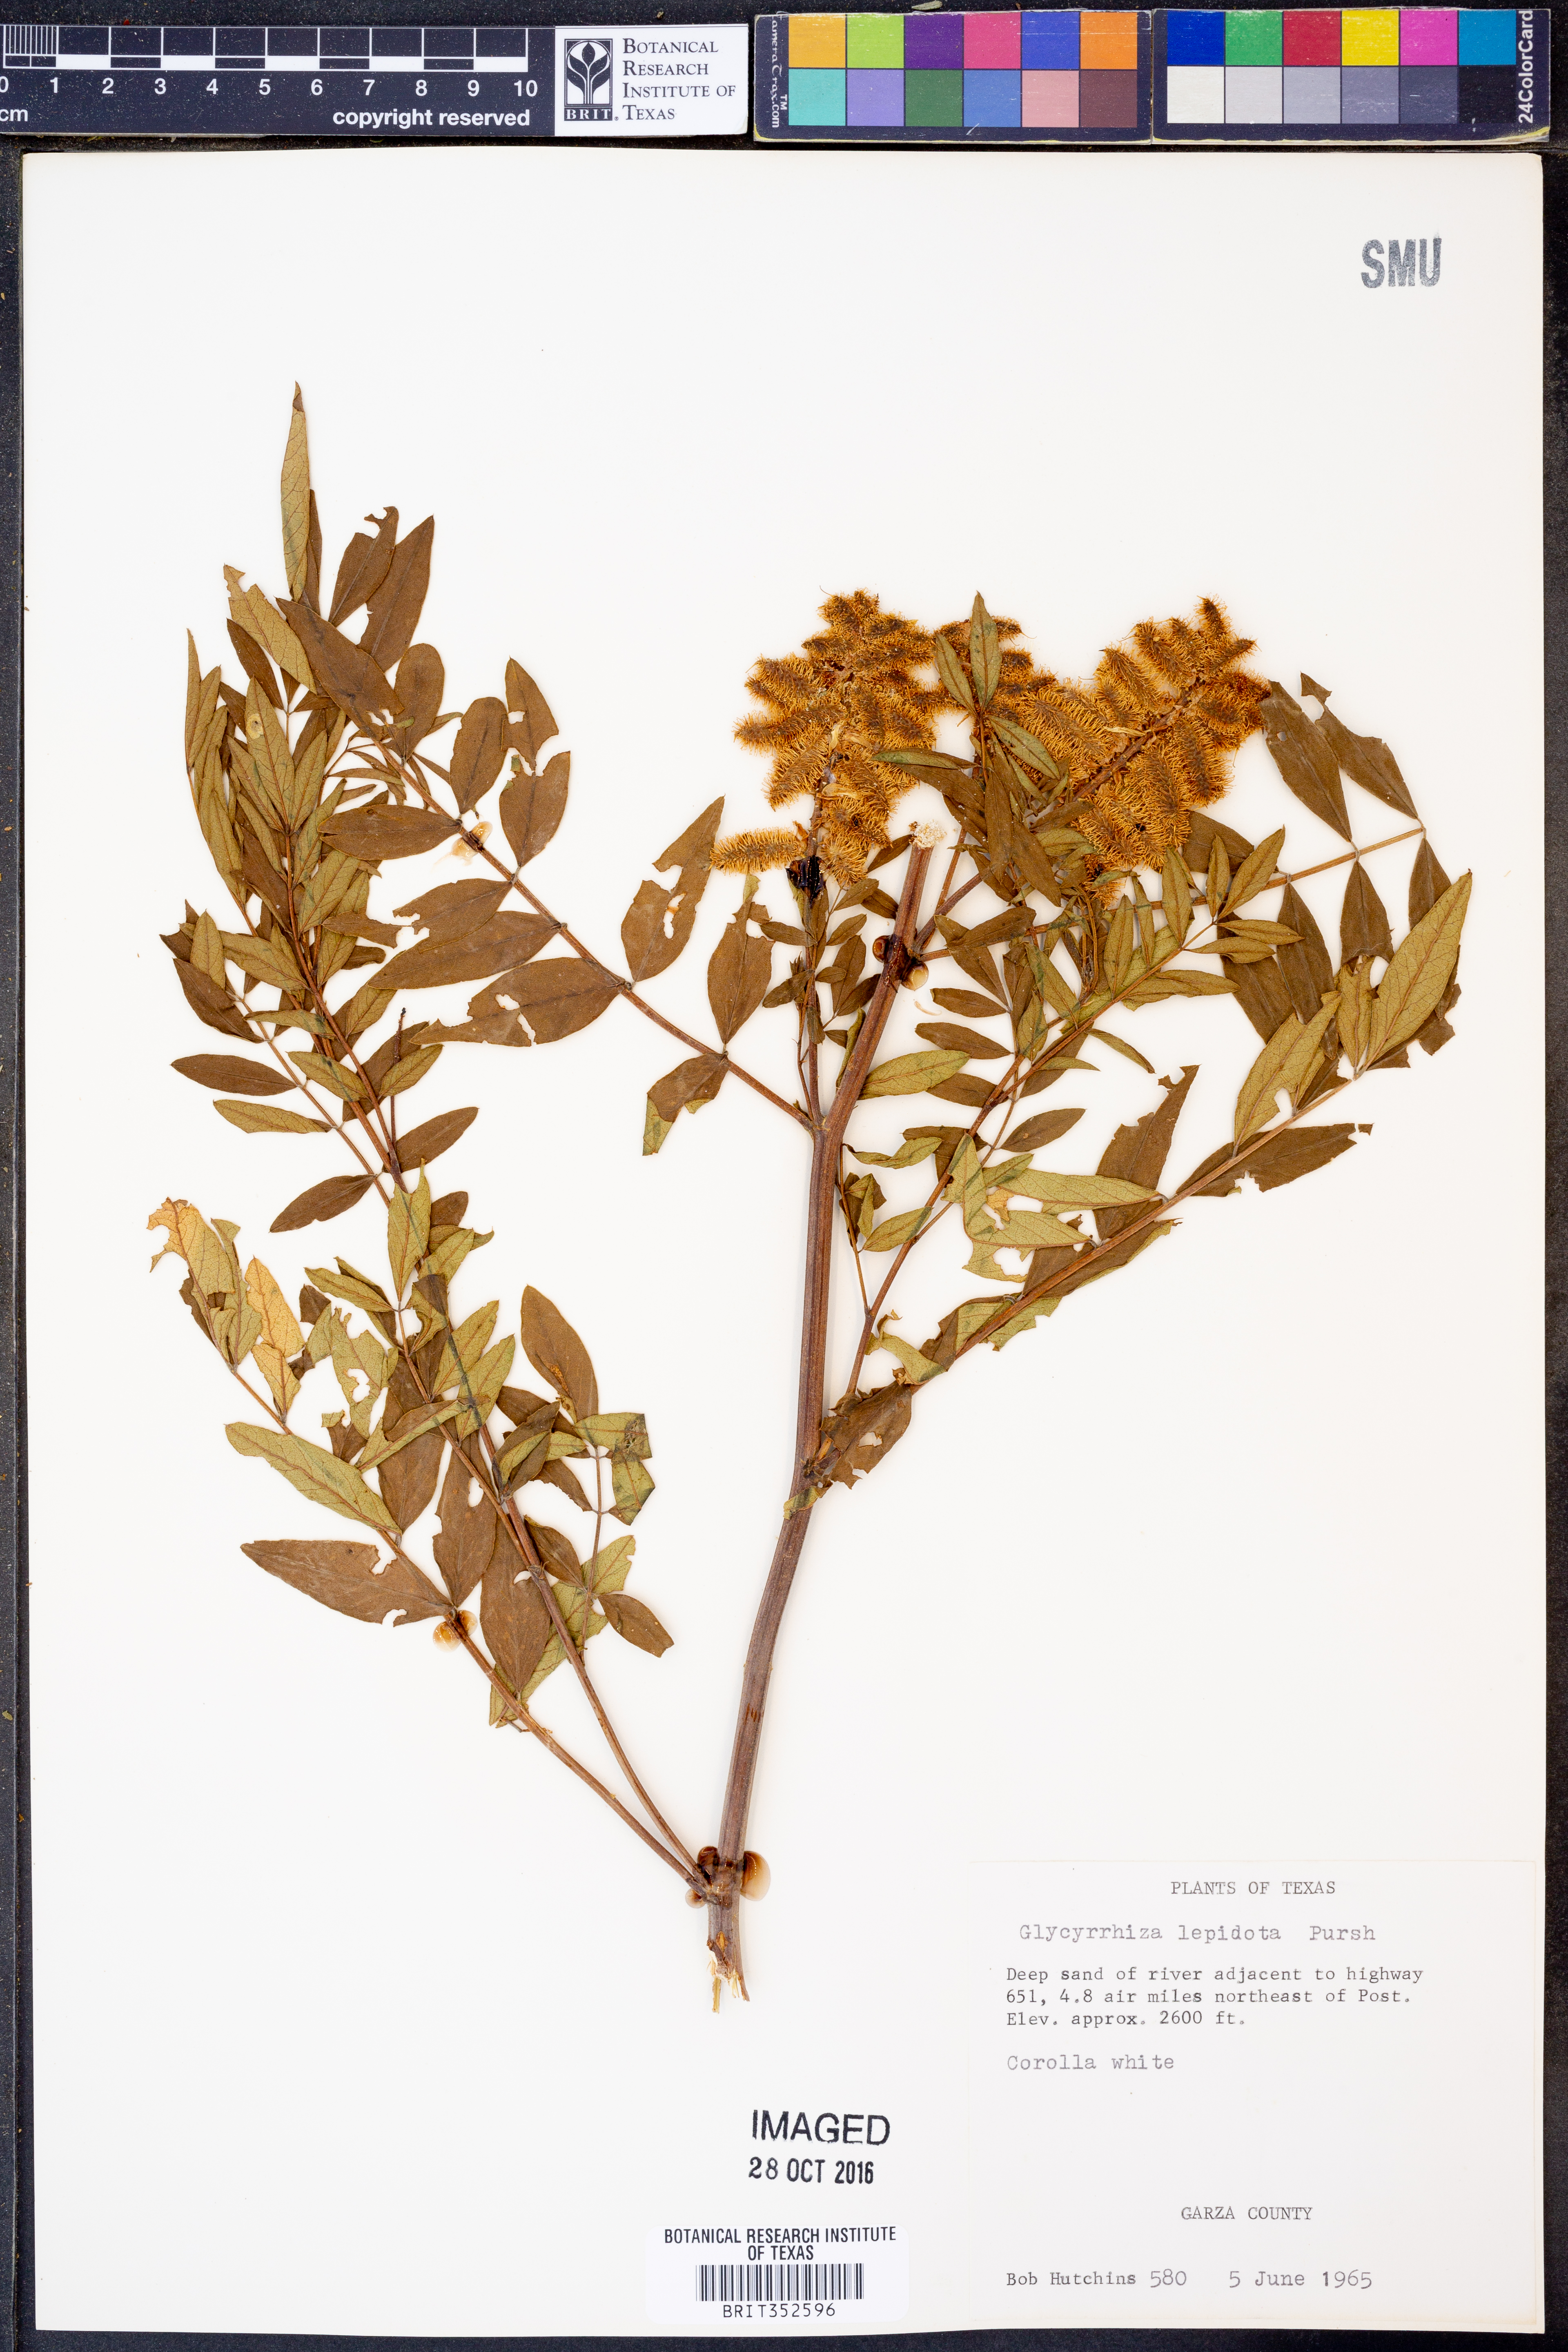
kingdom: Plantae
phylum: Tracheophyta
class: Magnoliopsida
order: Fabales
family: Fabaceae
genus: Glycyrrhiza
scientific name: Glycyrrhiza lepidota
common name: American liquorice
